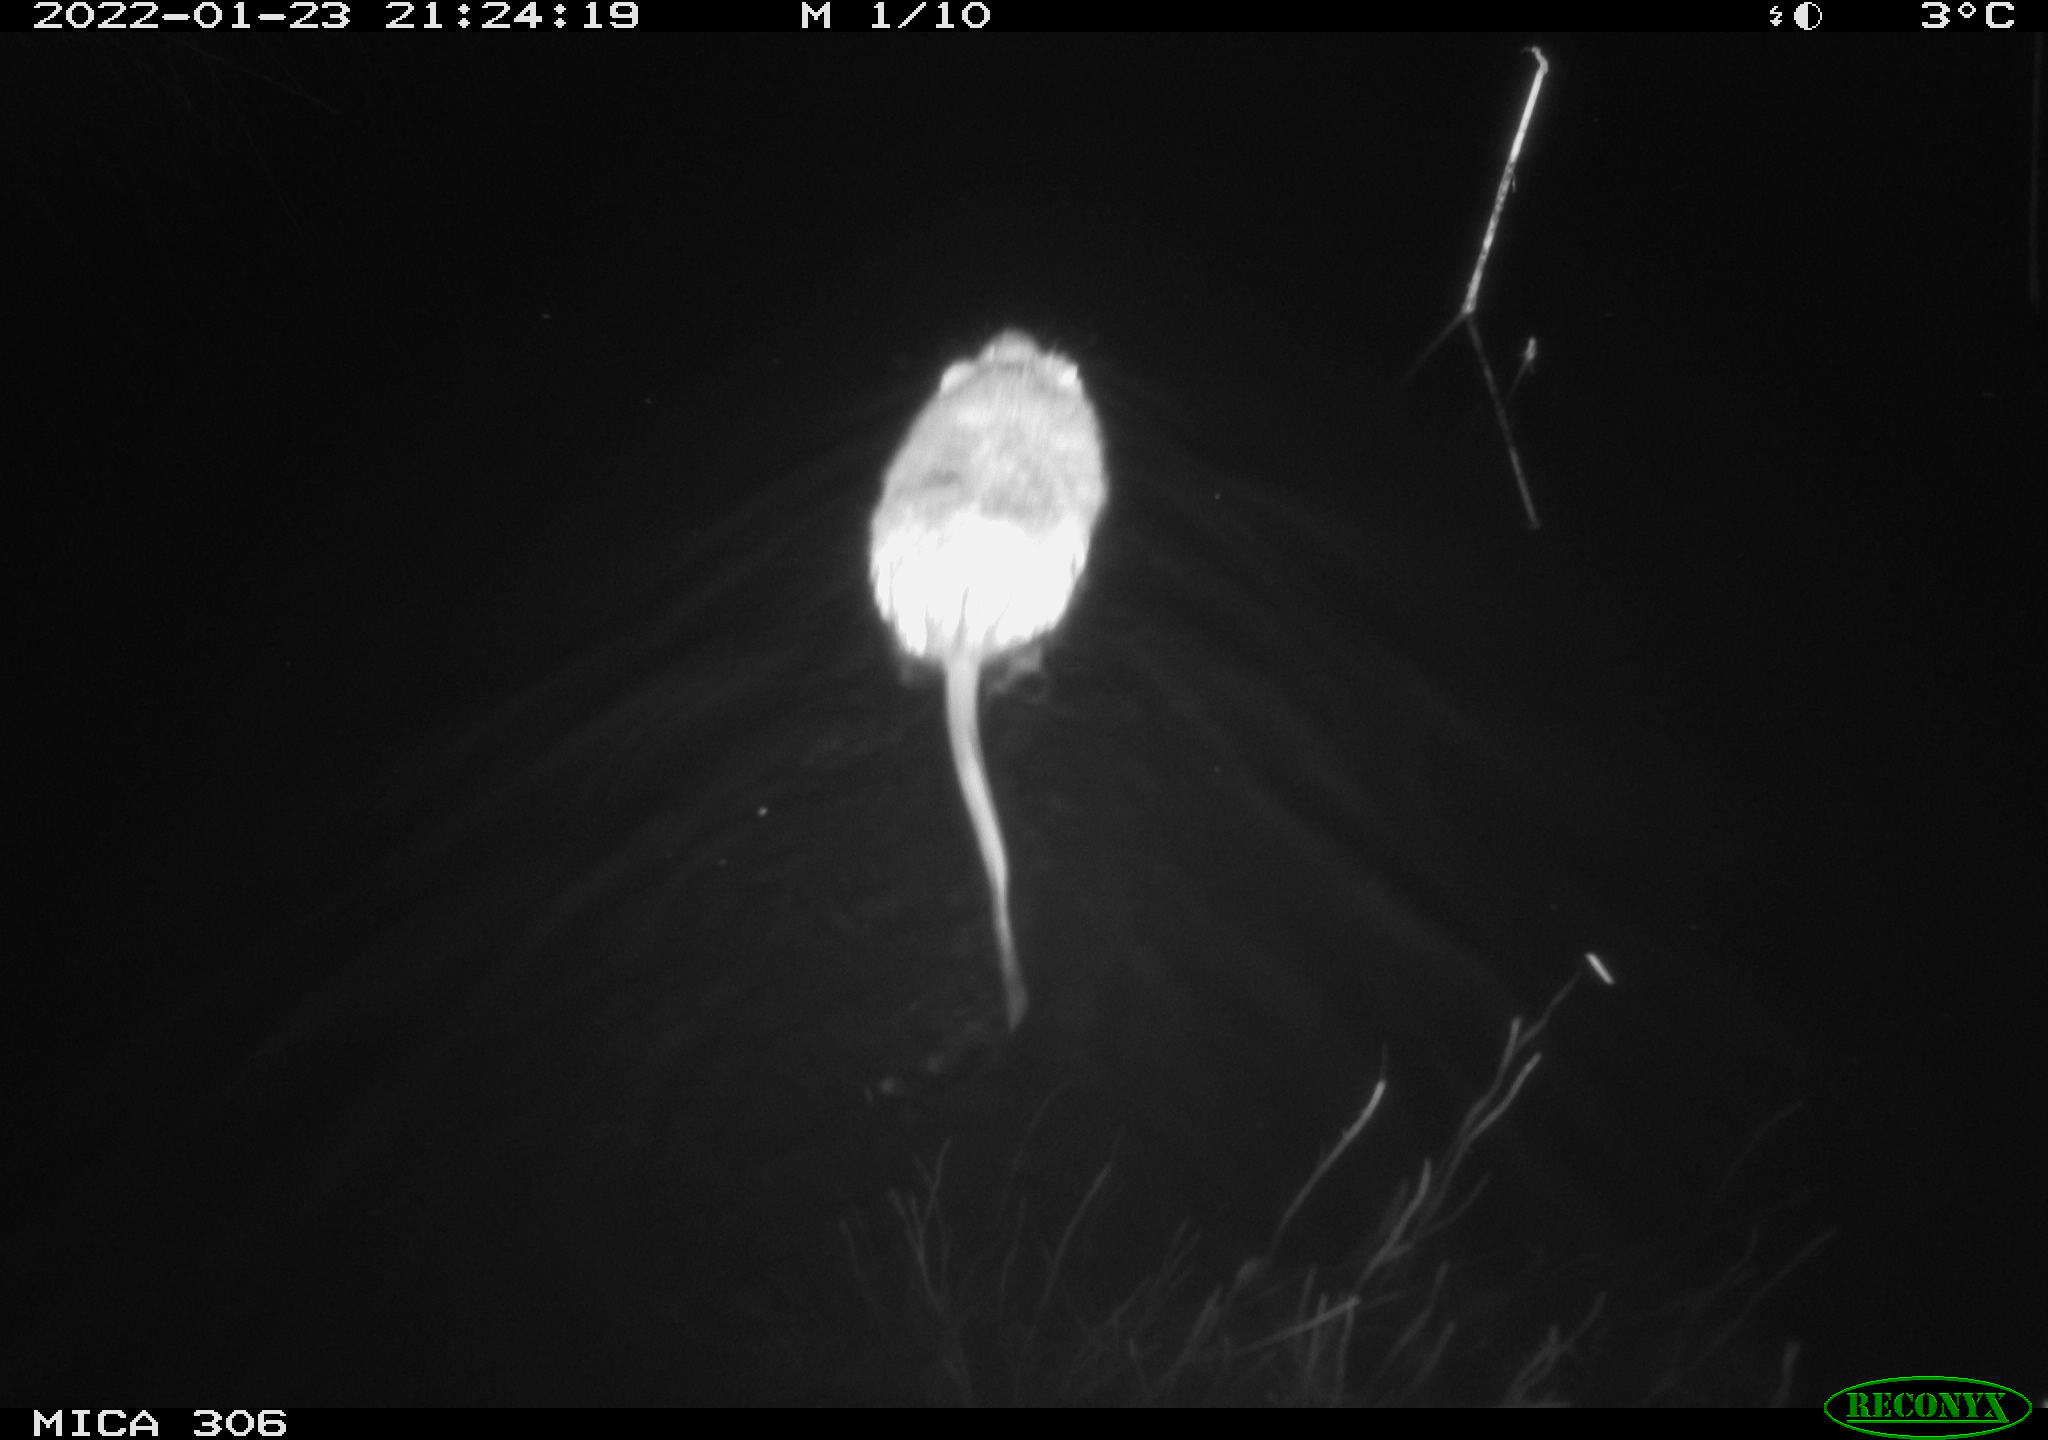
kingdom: Animalia
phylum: Chordata
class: Mammalia
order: Rodentia
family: Cricetidae
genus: Ondatra
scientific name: Ondatra zibethicus
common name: Muskrat
